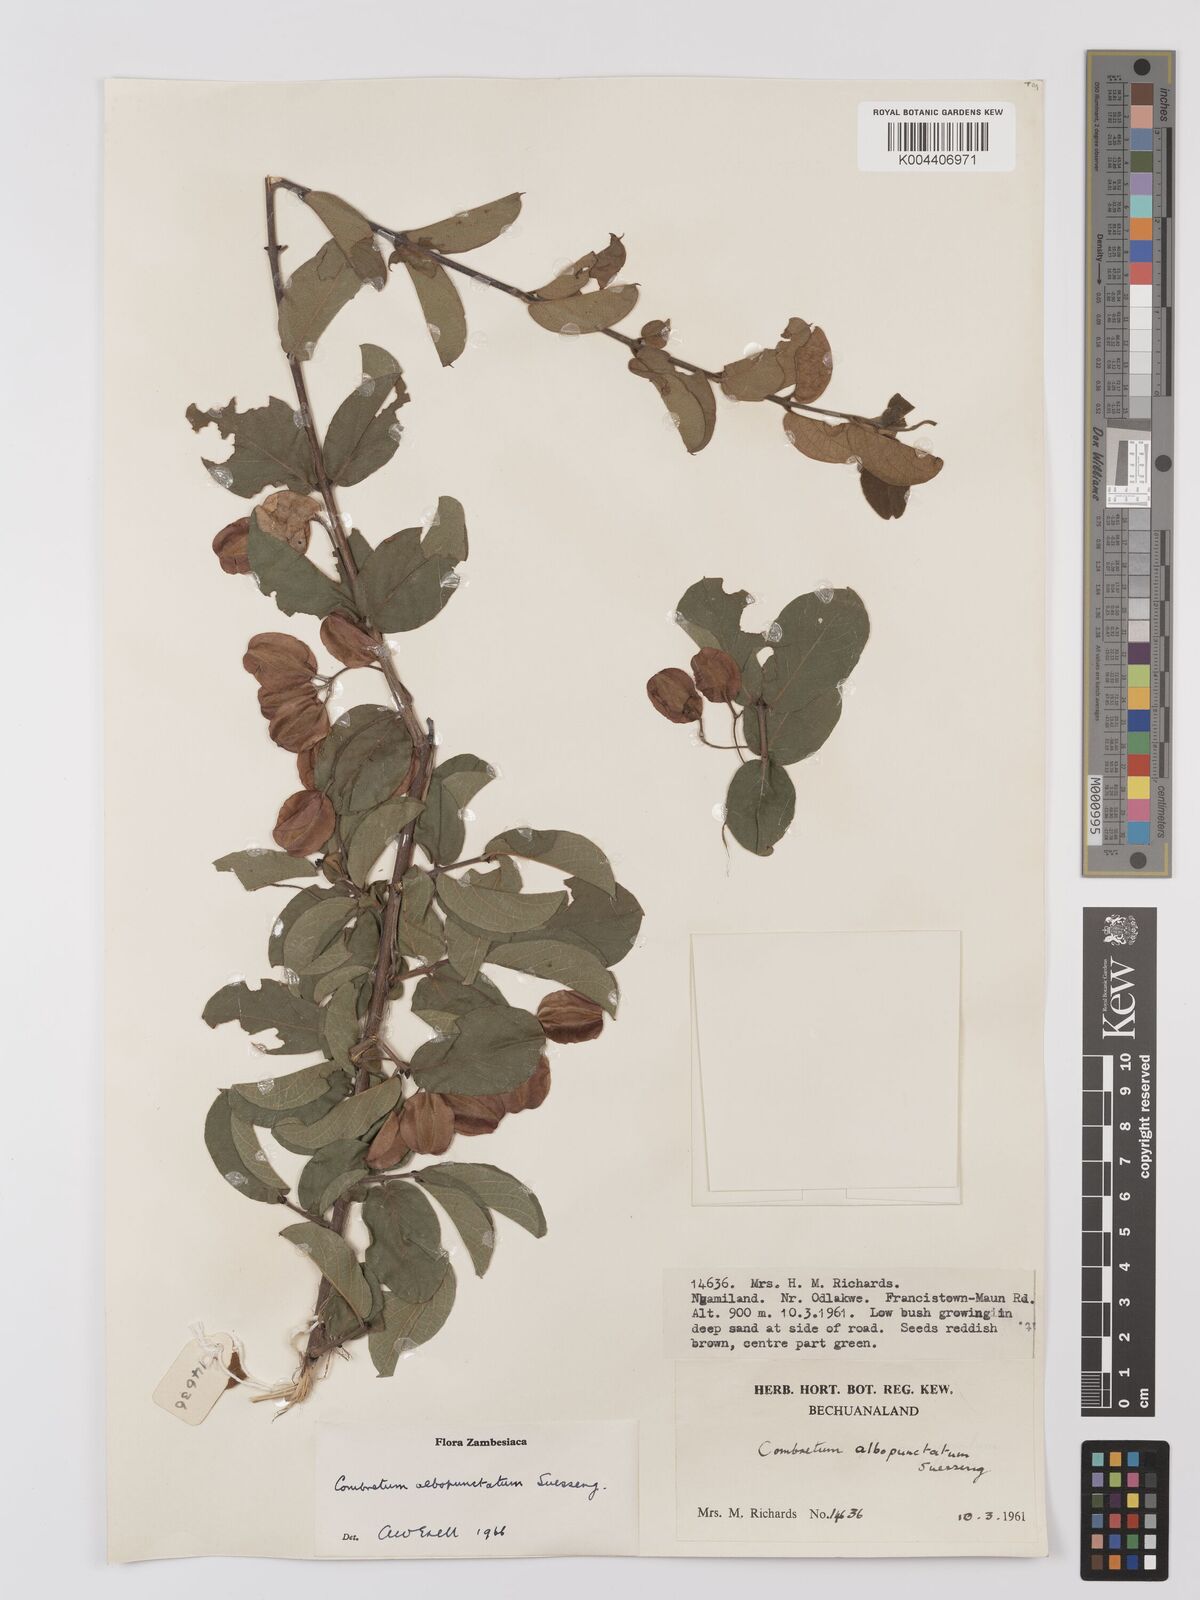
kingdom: Plantae
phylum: Tracheophyta
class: Magnoliopsida
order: Myrtales
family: Combretaceae
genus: Combretum
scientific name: Combretum albopunctatum
